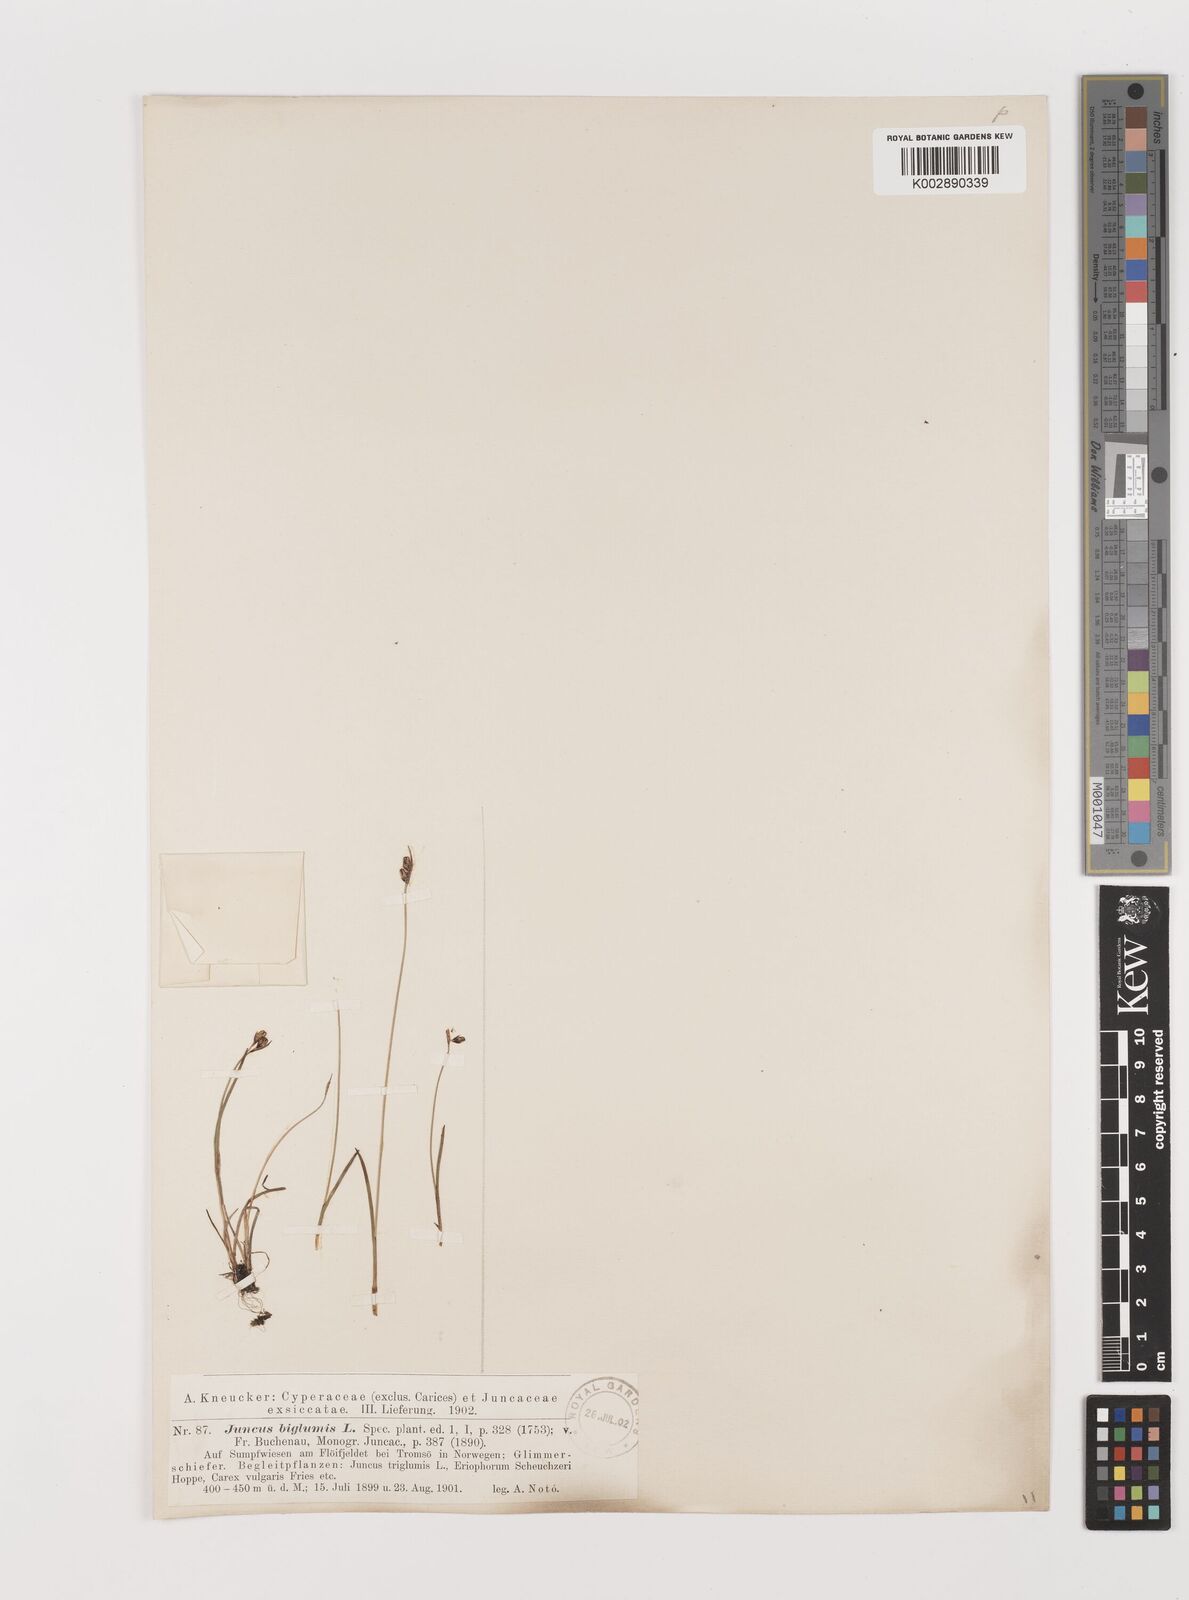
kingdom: Plantae
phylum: Tracheophyta
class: Liliopsida
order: Poales
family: Juncaceae
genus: Juncus
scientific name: Juncus biglumis
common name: Two-flowered rush
